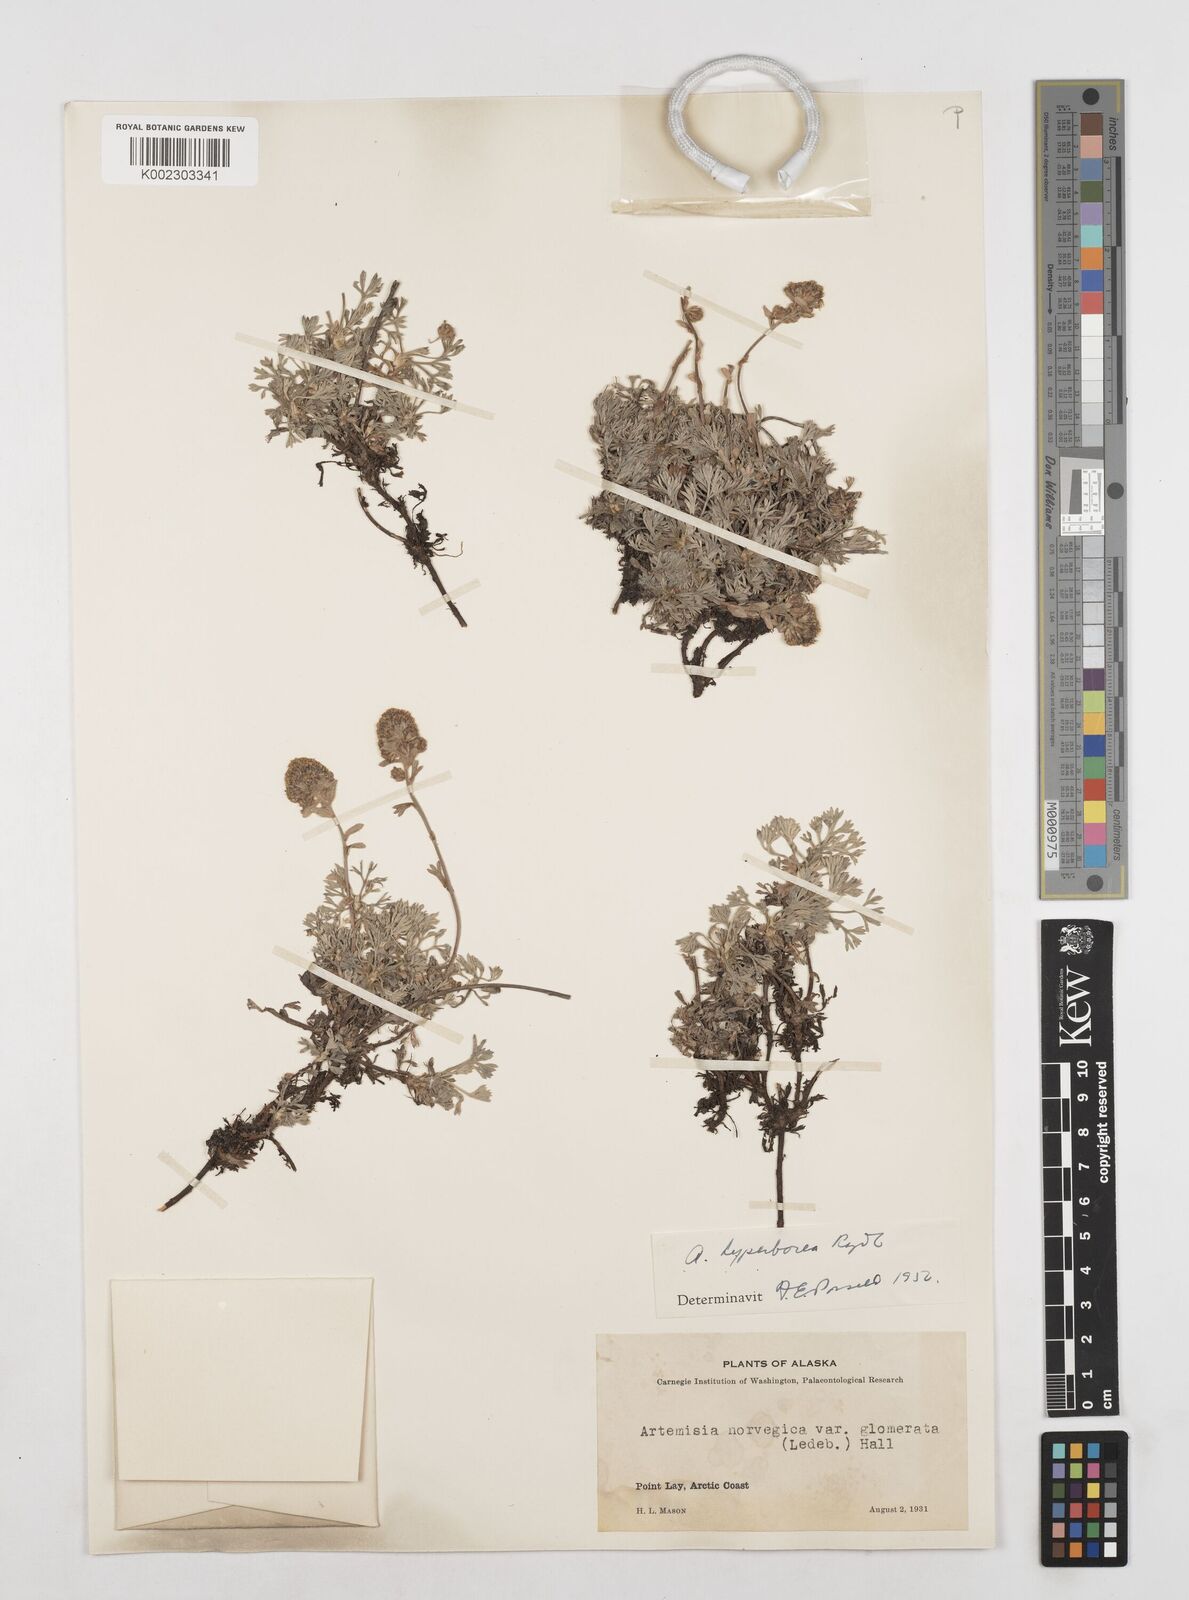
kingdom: Plantae
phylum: Tracheophyta
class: Magnoliopsida
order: Asterales
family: Asteraceae
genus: Artemisia
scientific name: Artemisia furcata
